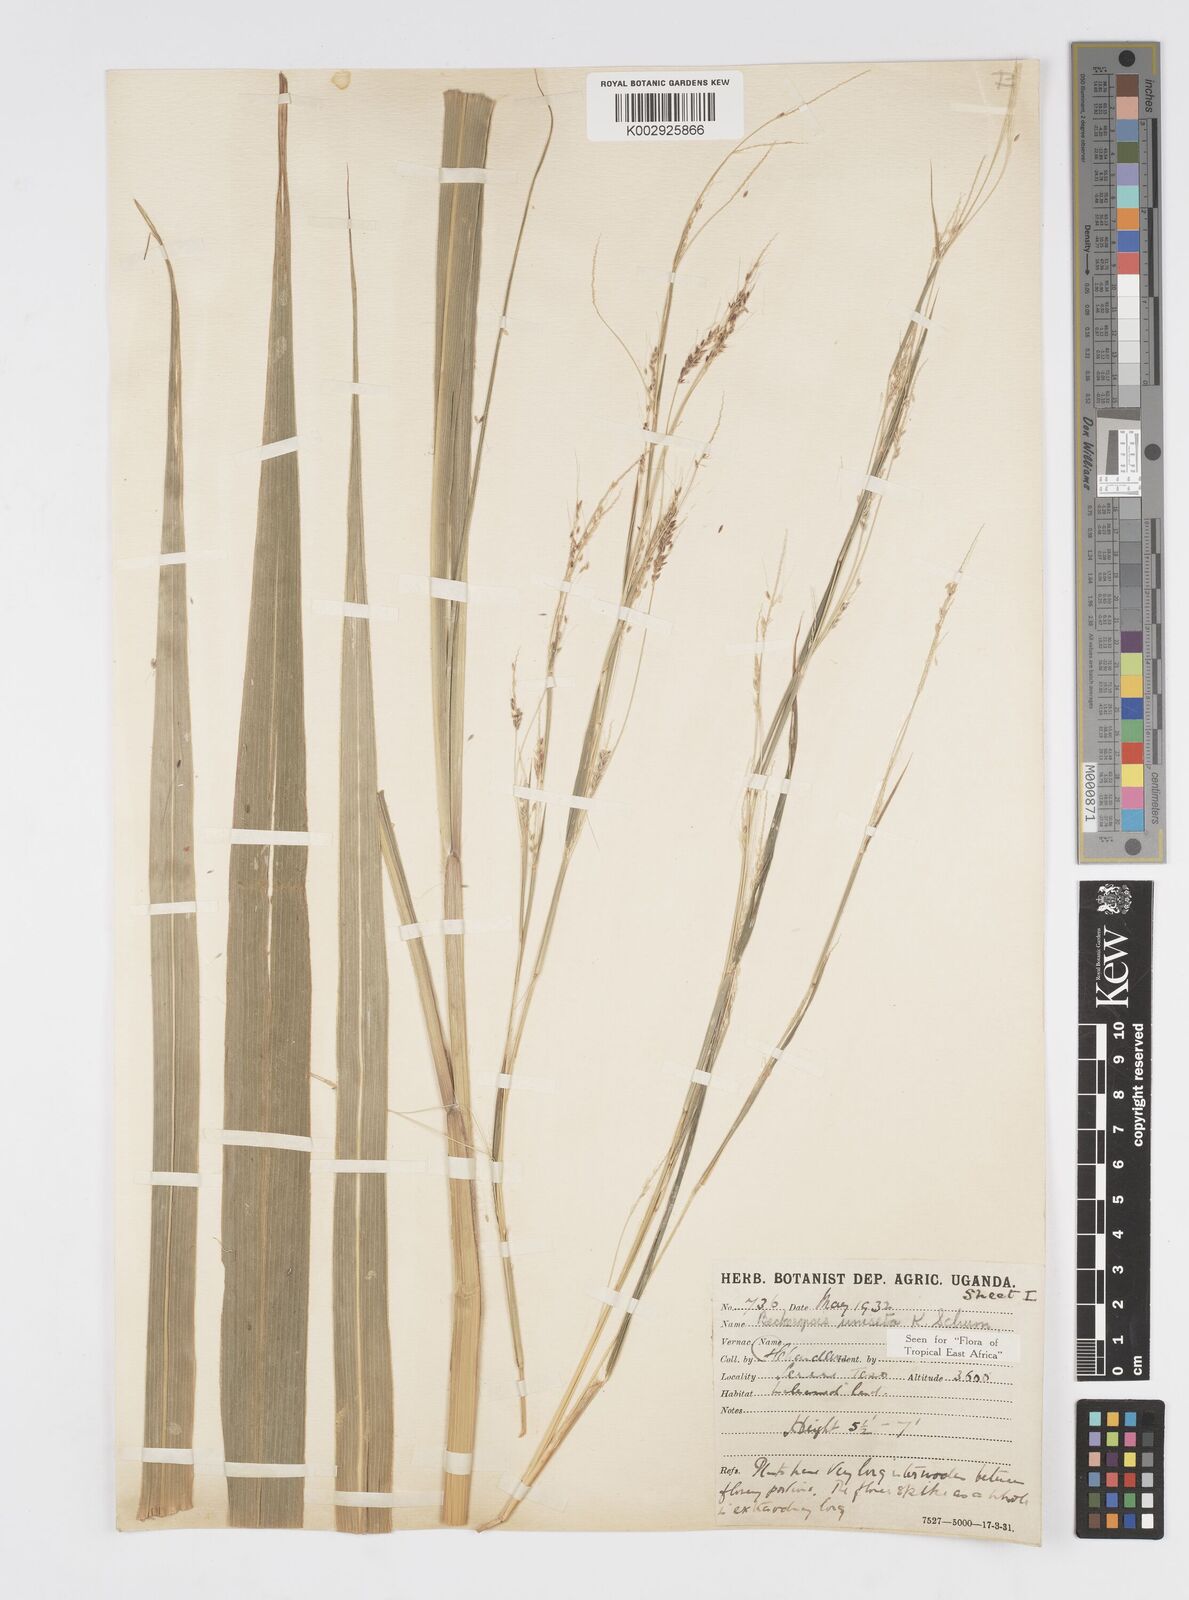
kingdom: Plantae
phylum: Tracheophyta
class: Liliopsida
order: Poales
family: Poaceae
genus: Cenchrus
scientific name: Cenchrus unisetus
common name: Natal grass
